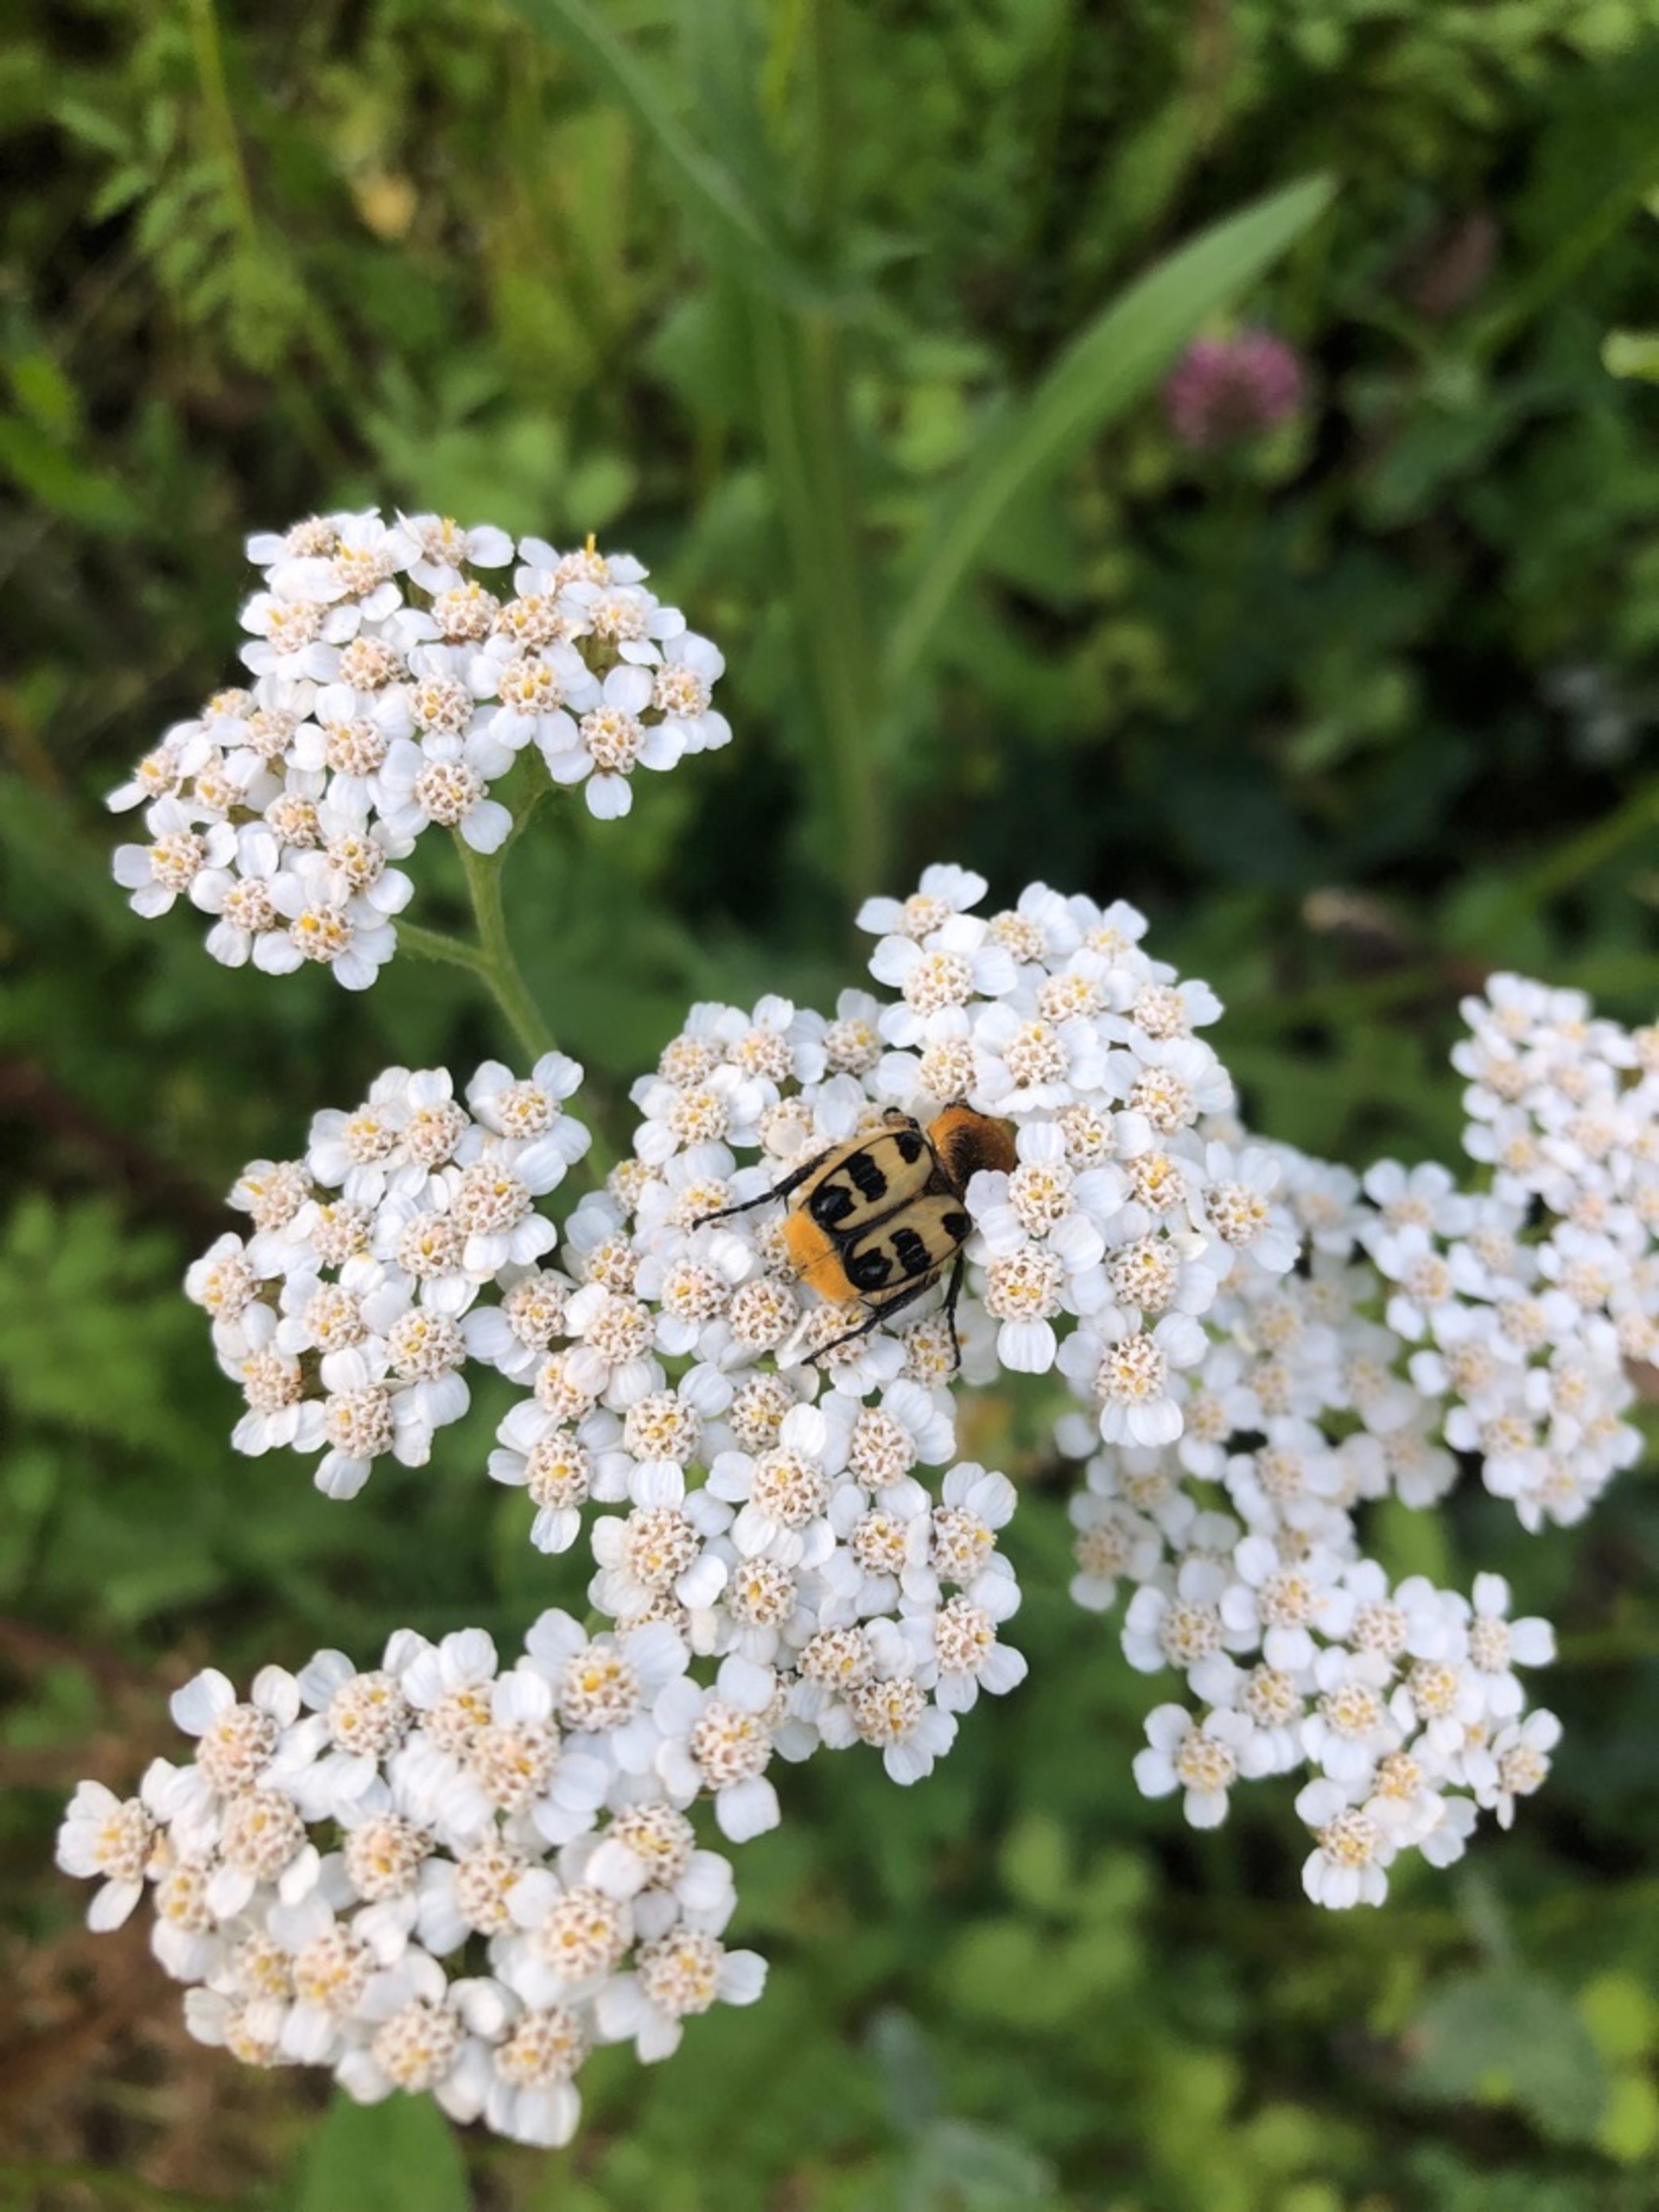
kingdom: Animalia
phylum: Arthropoda
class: Insecta
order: Coleoptera
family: Scarabaeidae
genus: Trichius
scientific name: Trichius gallicus
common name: Lille humlebille
